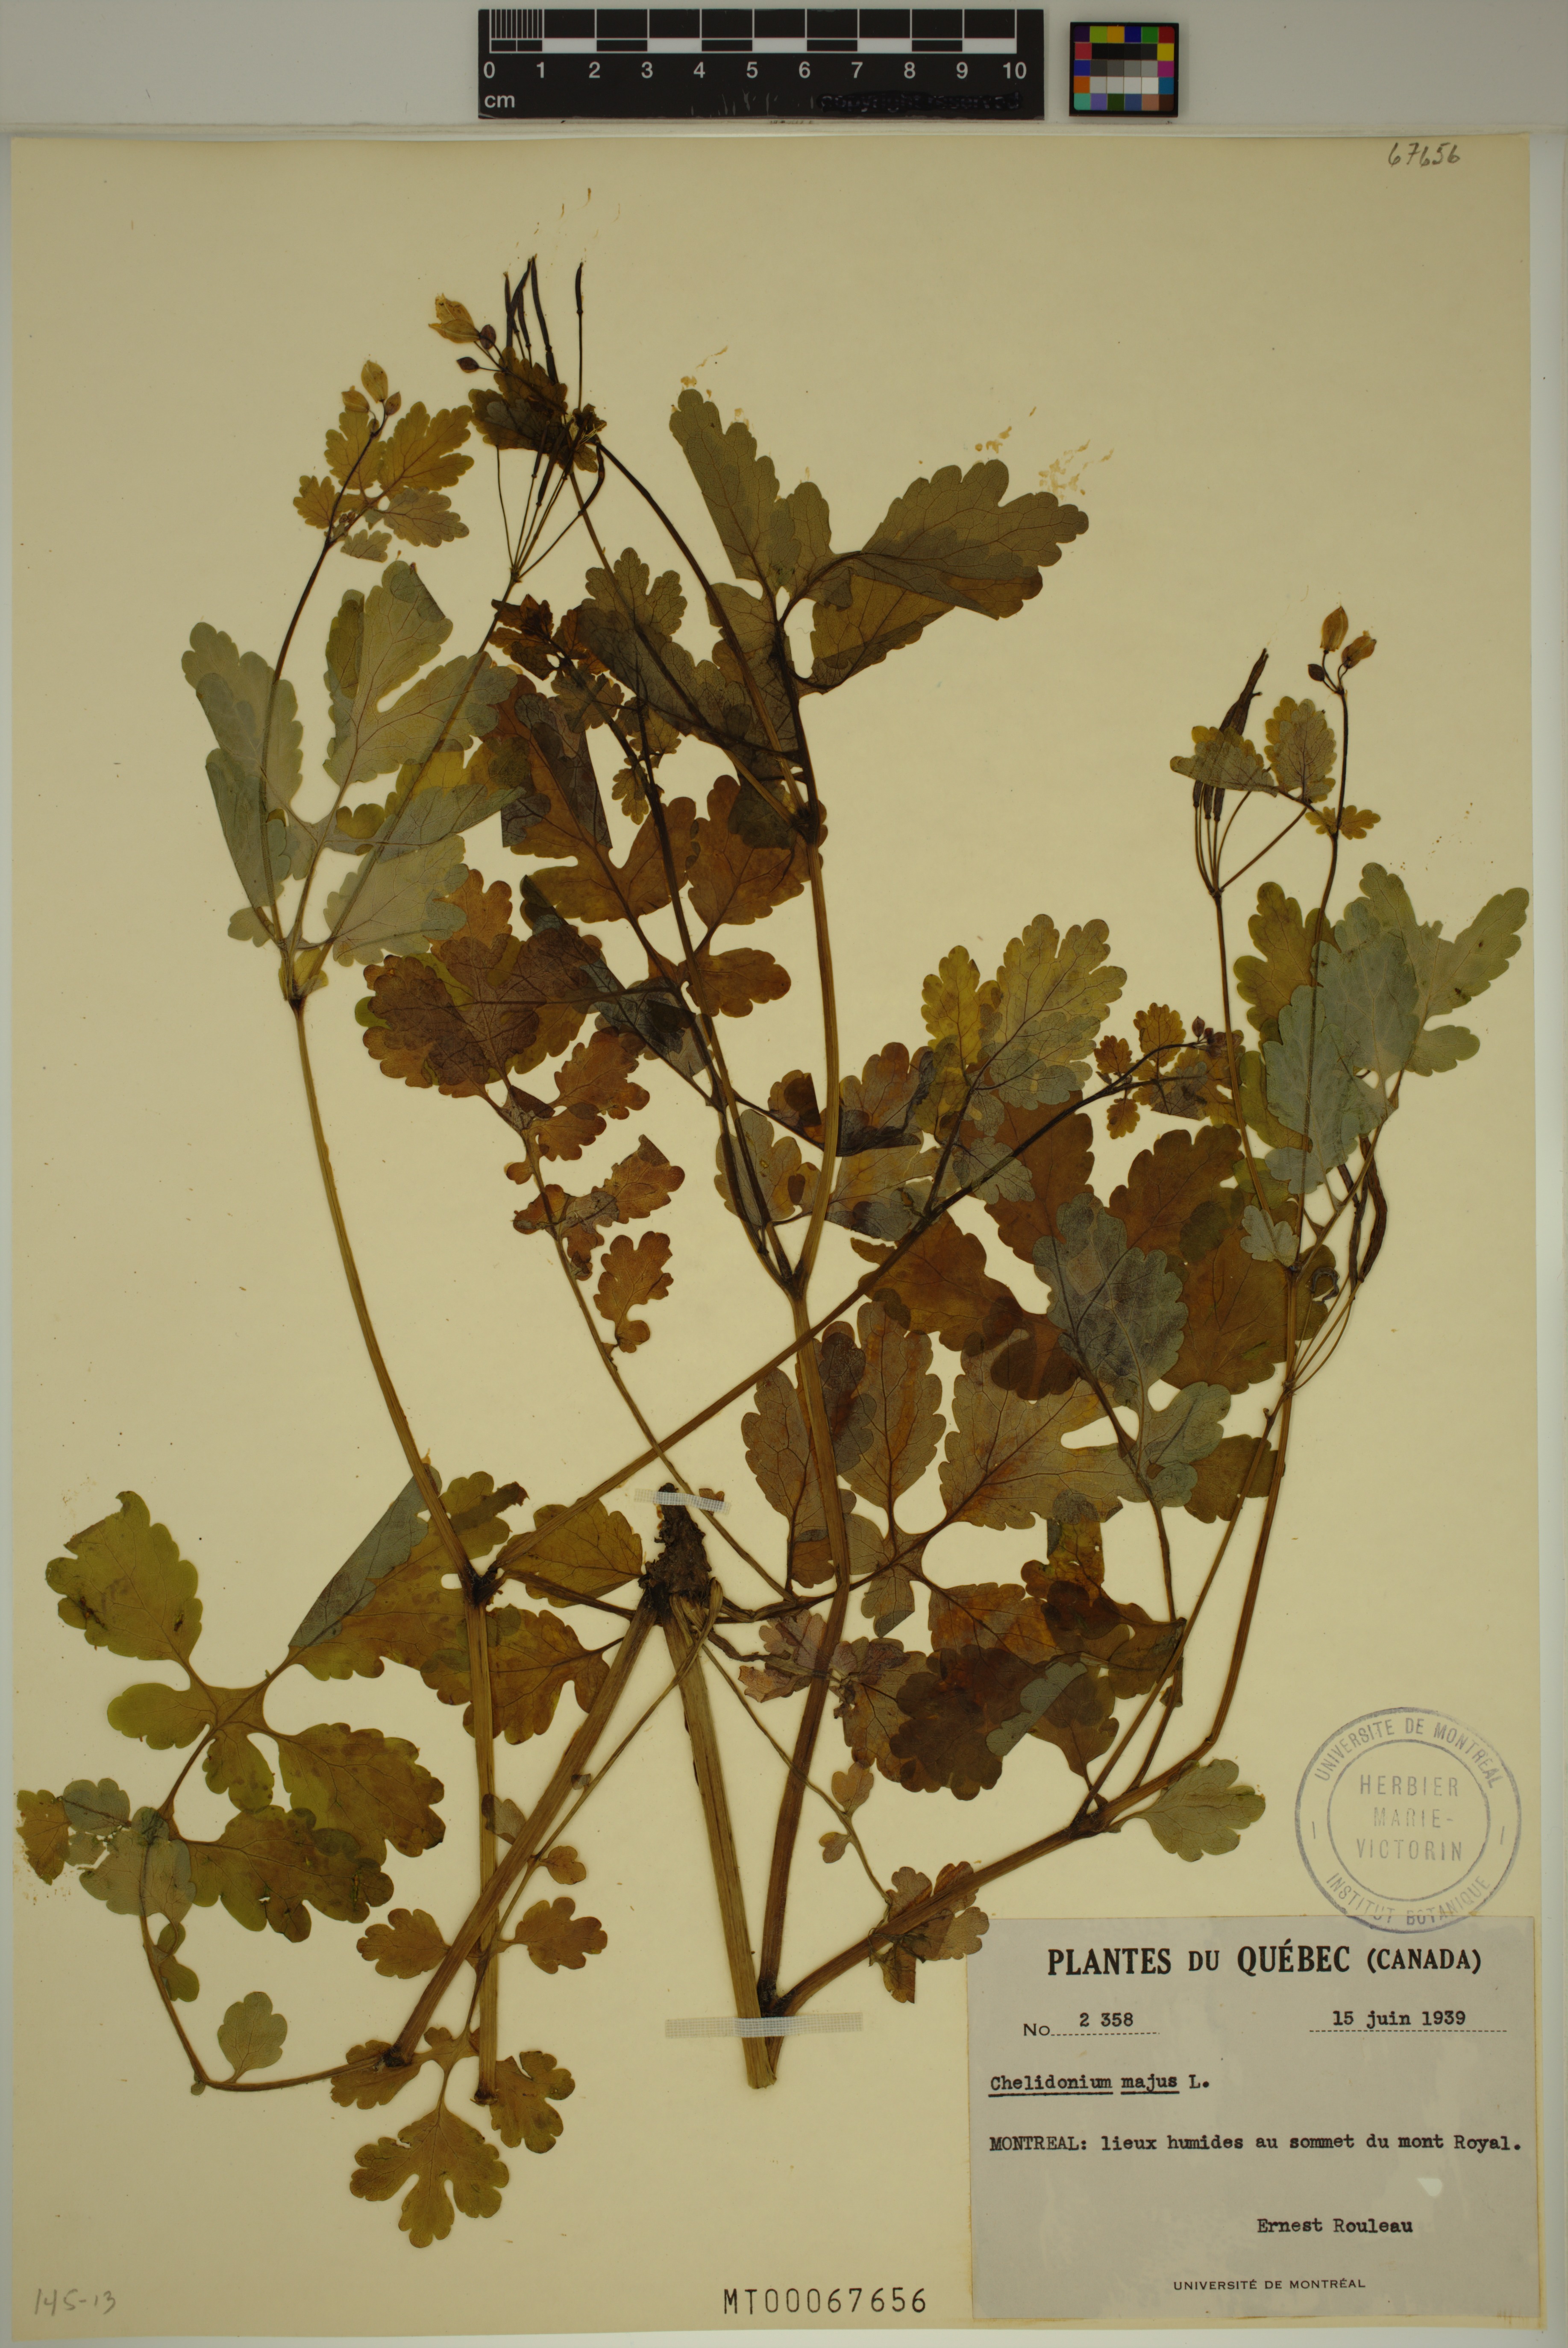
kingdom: Plantae
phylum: Tracheophyta
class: Magnoliopsida
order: Ranunculales
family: Papaveraceae
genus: Chelidonium
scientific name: Chelidonium majus
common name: Greater celandine
